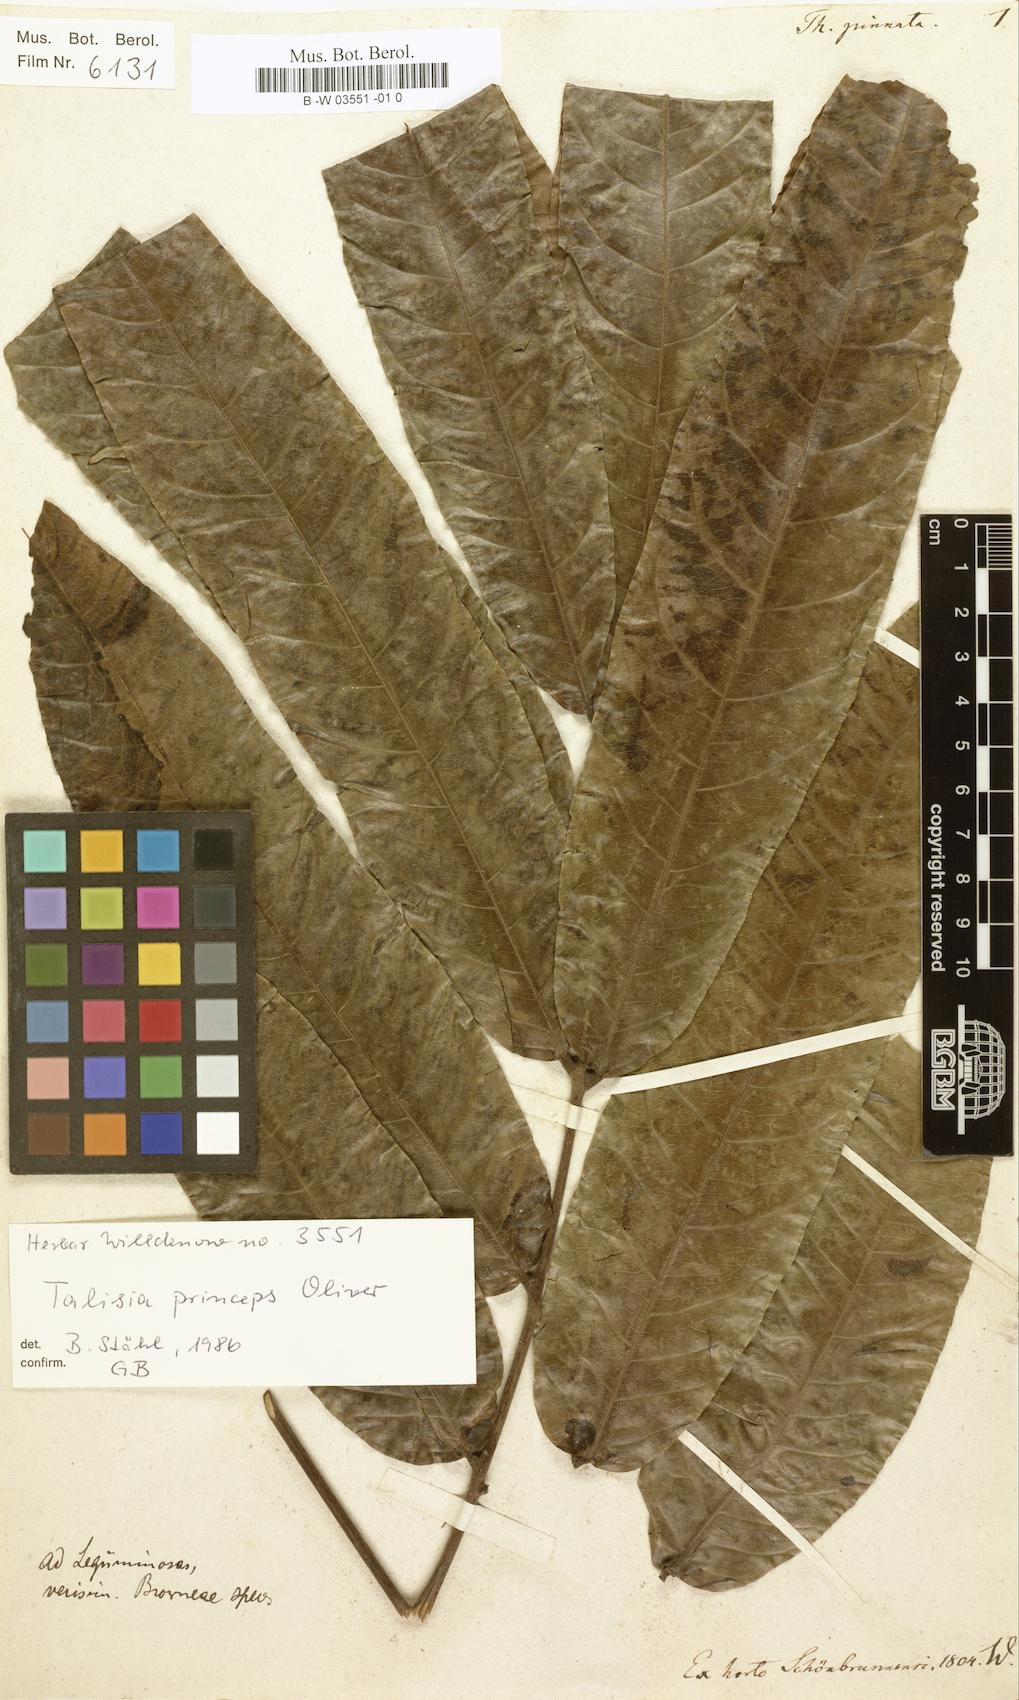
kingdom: Plantae
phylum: Tracheophyta
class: Magnoliopsida
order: Ericales
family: Primulaceae
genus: Theophrasta
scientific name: Theophrasta jussieui
